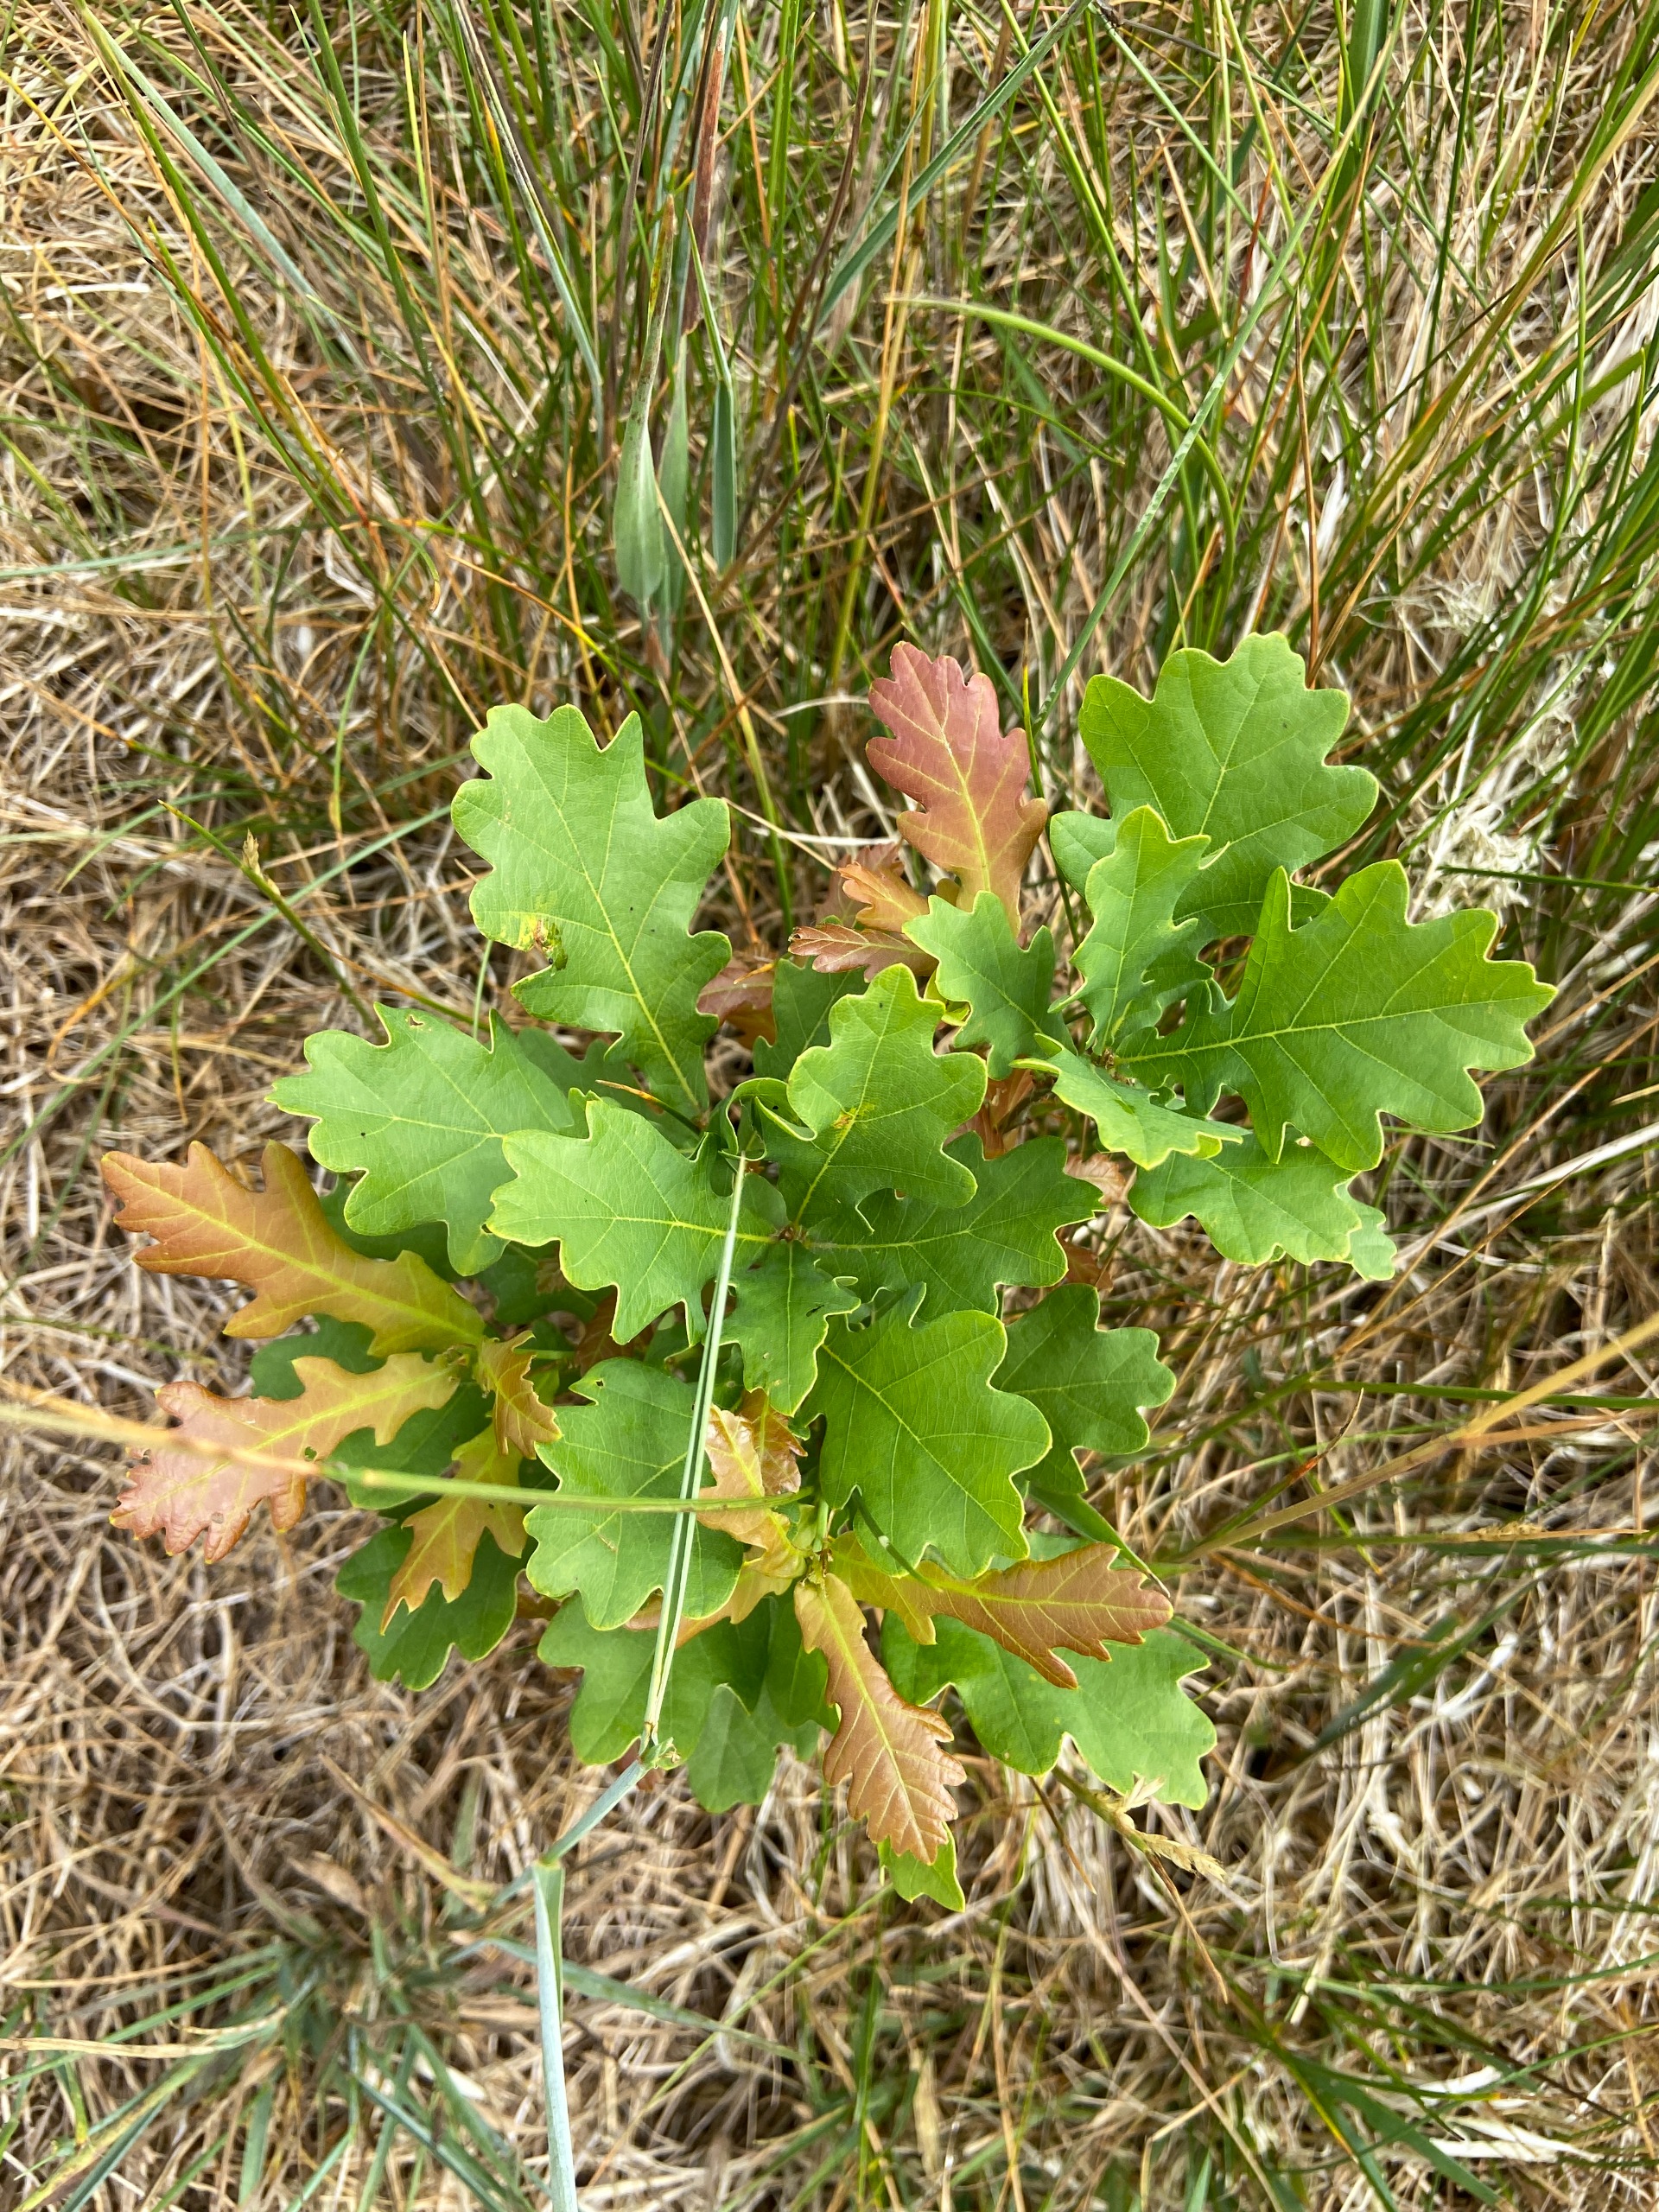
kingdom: Plantae
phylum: Tracheophyta
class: Magnoliopsida
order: Fagales
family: Fagaceae
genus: Quercus
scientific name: Quercus robur
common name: Stilk-eg/almindelig eg
